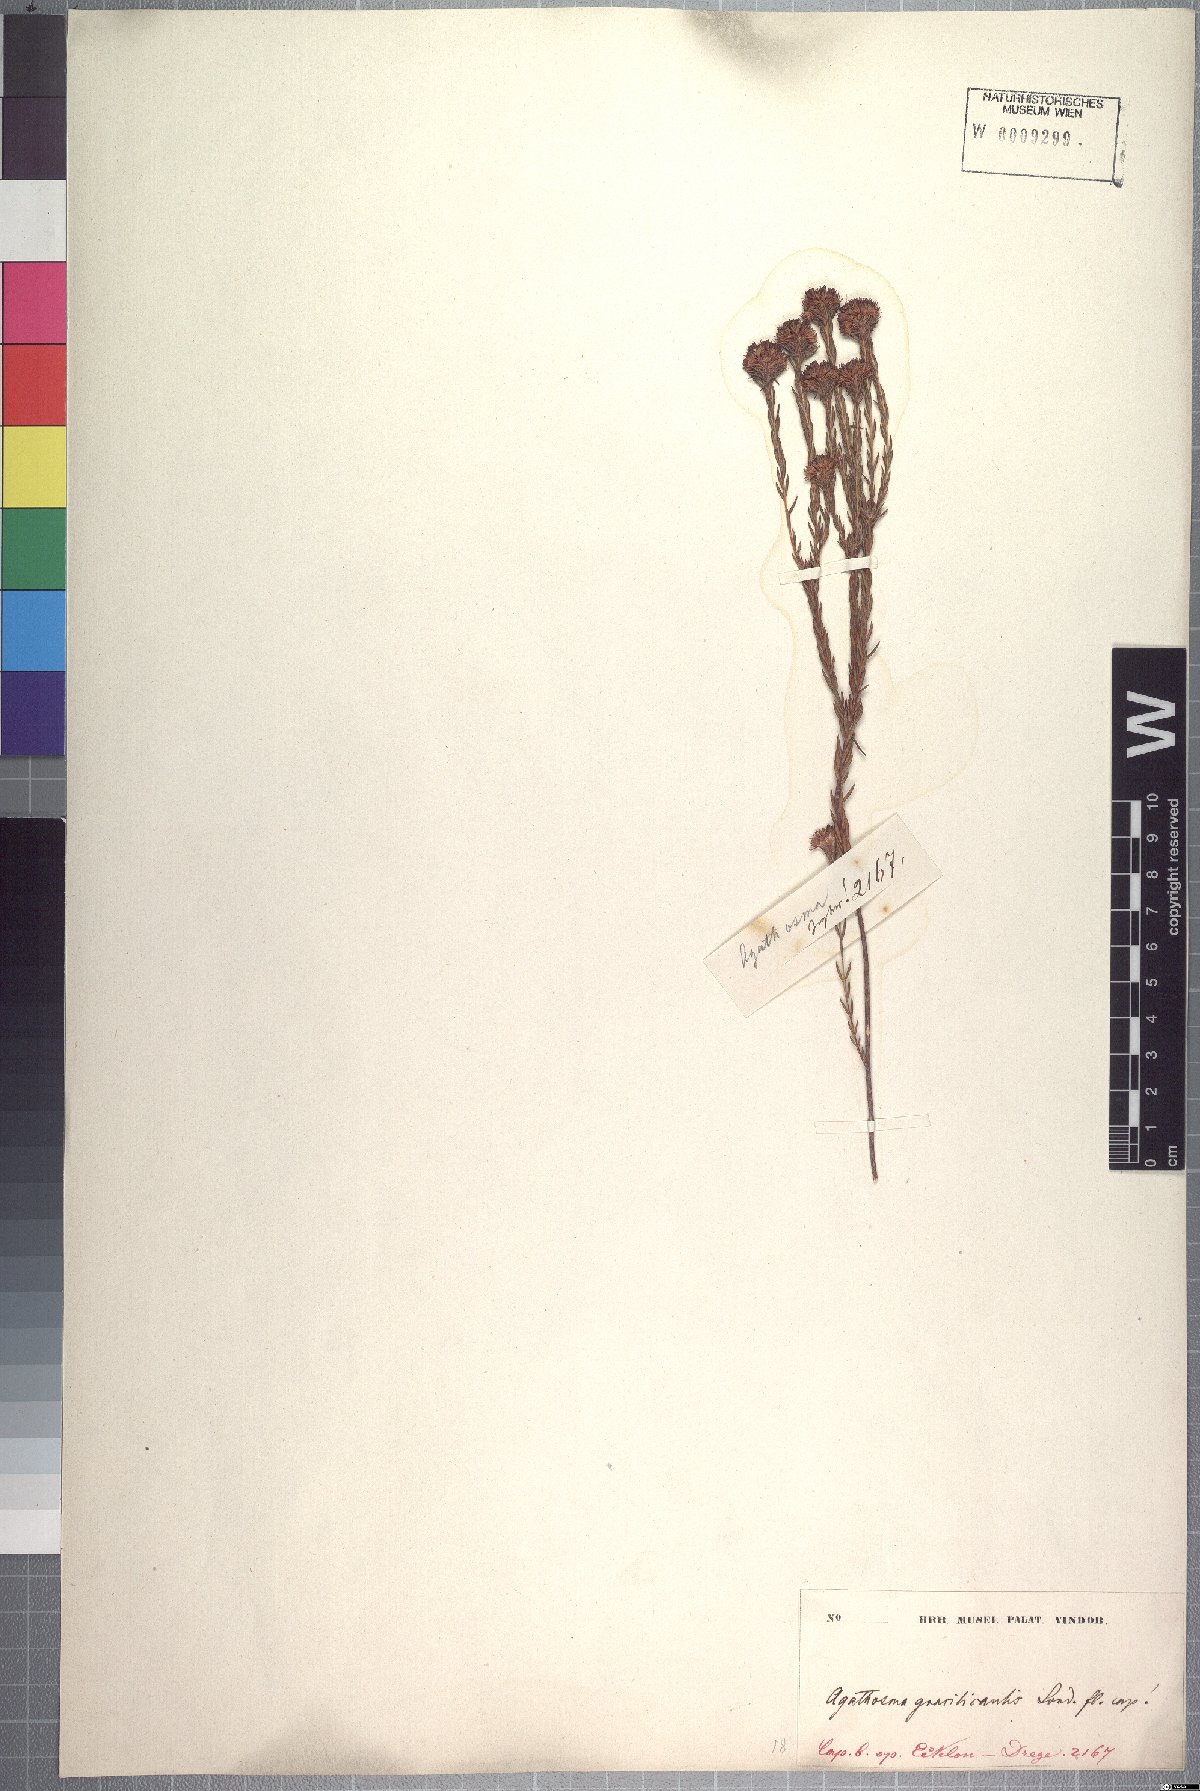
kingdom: Plantae
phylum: Tracheophyta
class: Magnoliopsida
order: Sapindales
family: Rutaceae
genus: Agathosma
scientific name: Agathosma bifida
